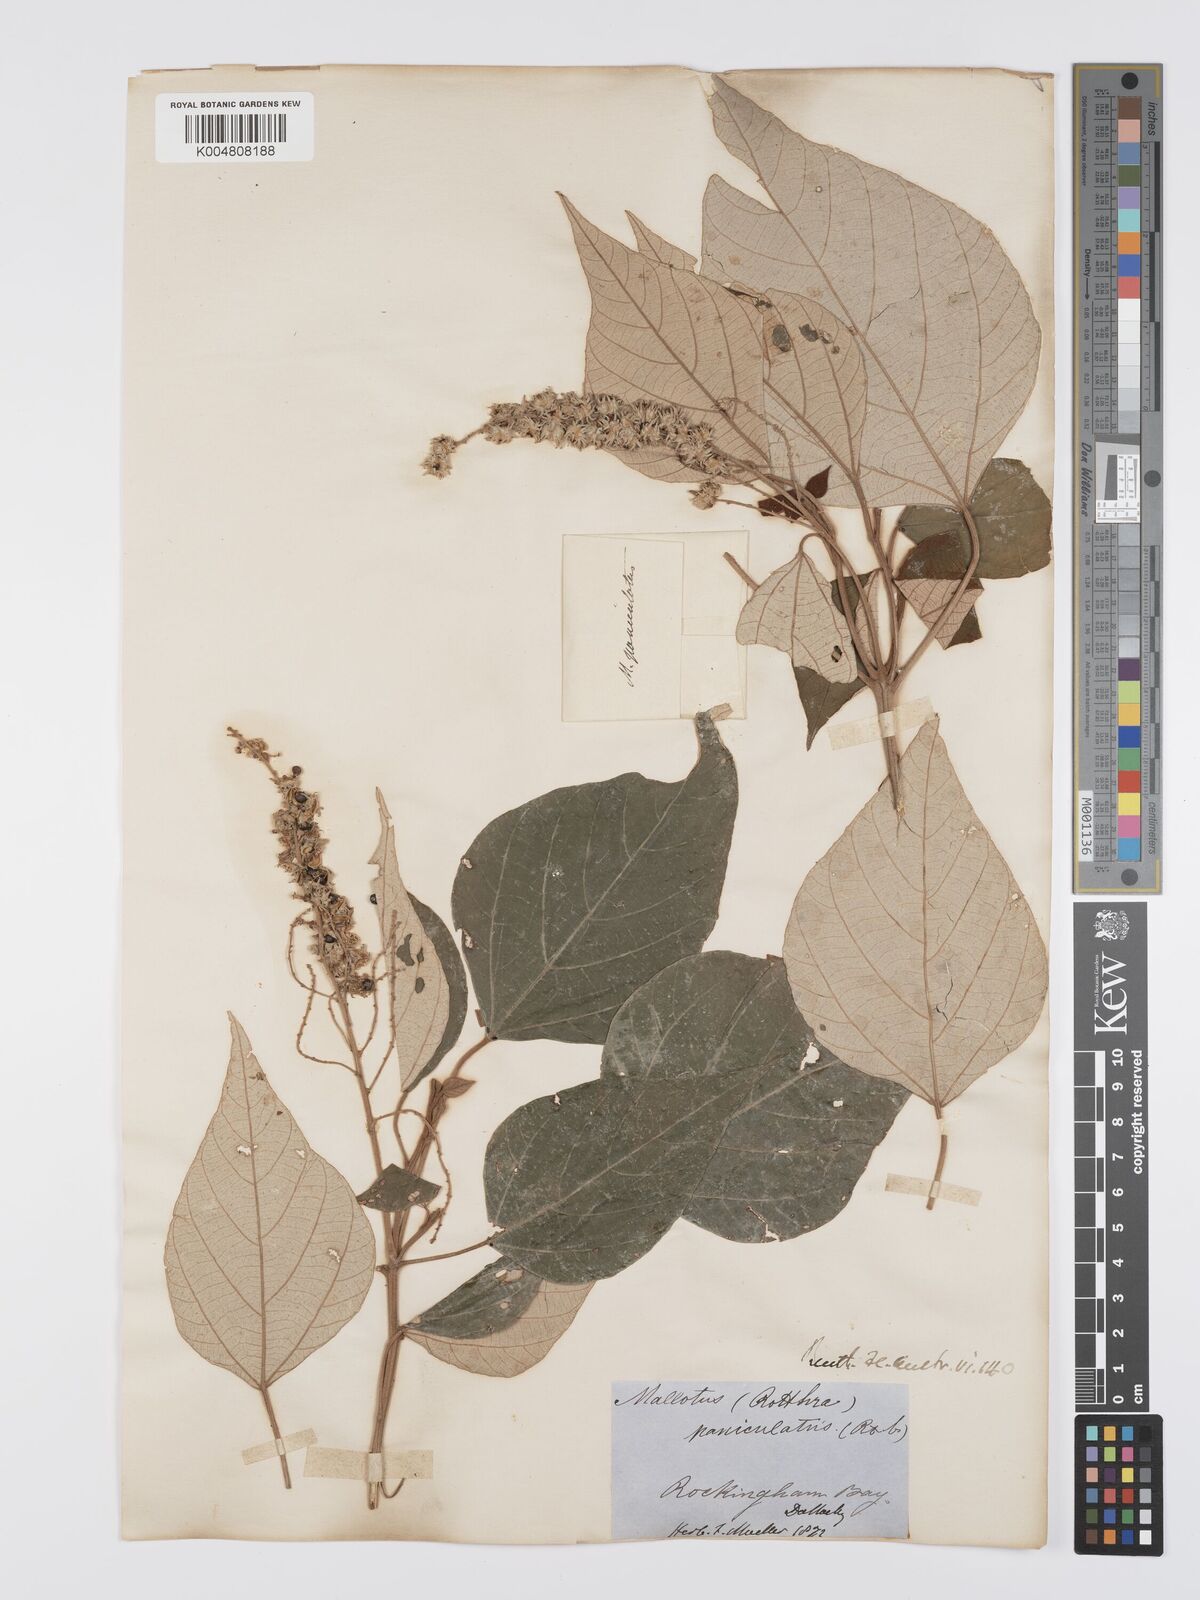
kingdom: Plantae
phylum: Tracheophyta
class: Magnoliopsida
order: Malpighiales
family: Euphorbiaceae
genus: Mallotus
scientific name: Mallotus paniculatus
